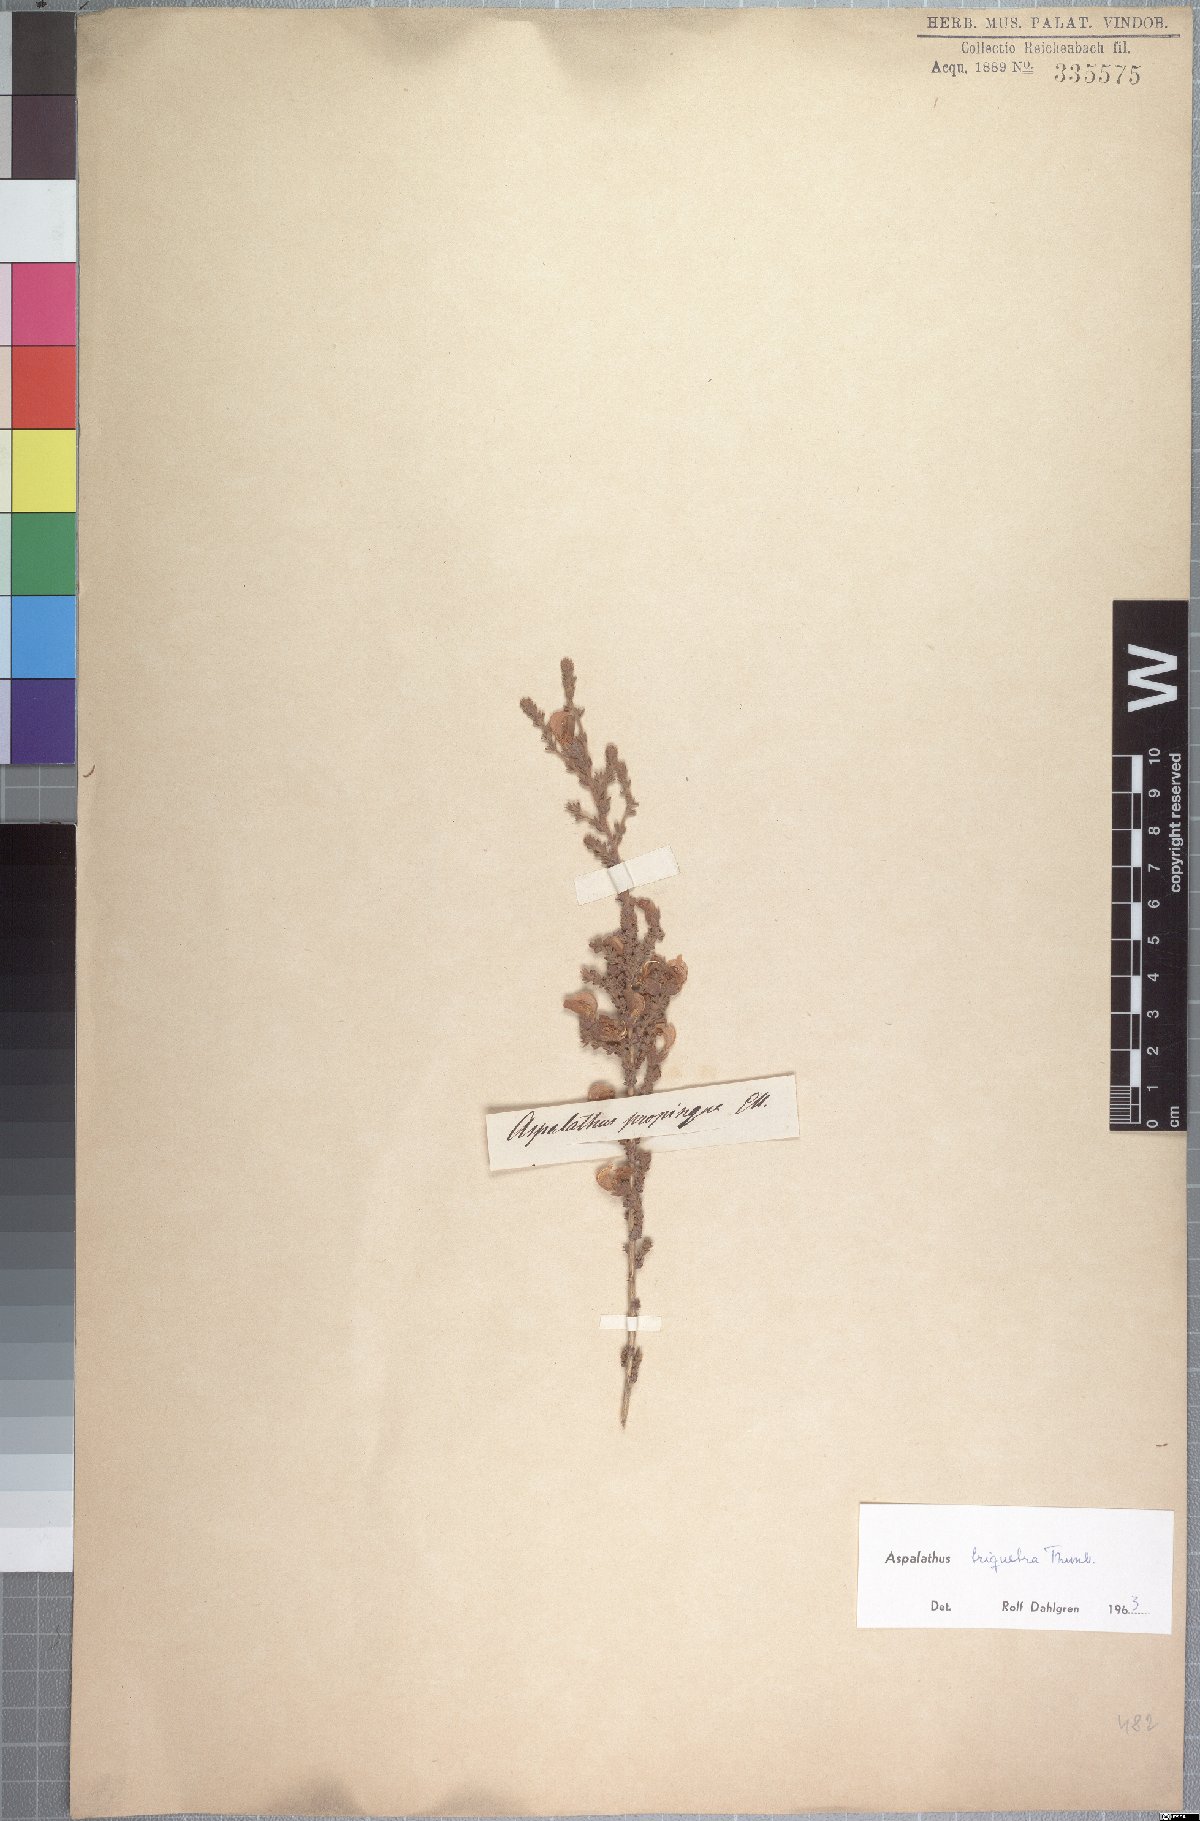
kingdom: Plantae
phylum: Tracheophyta
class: Magnoliopsida
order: Fabales
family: Fabaceae
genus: Aspalathus
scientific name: Aspalathus triquetra
